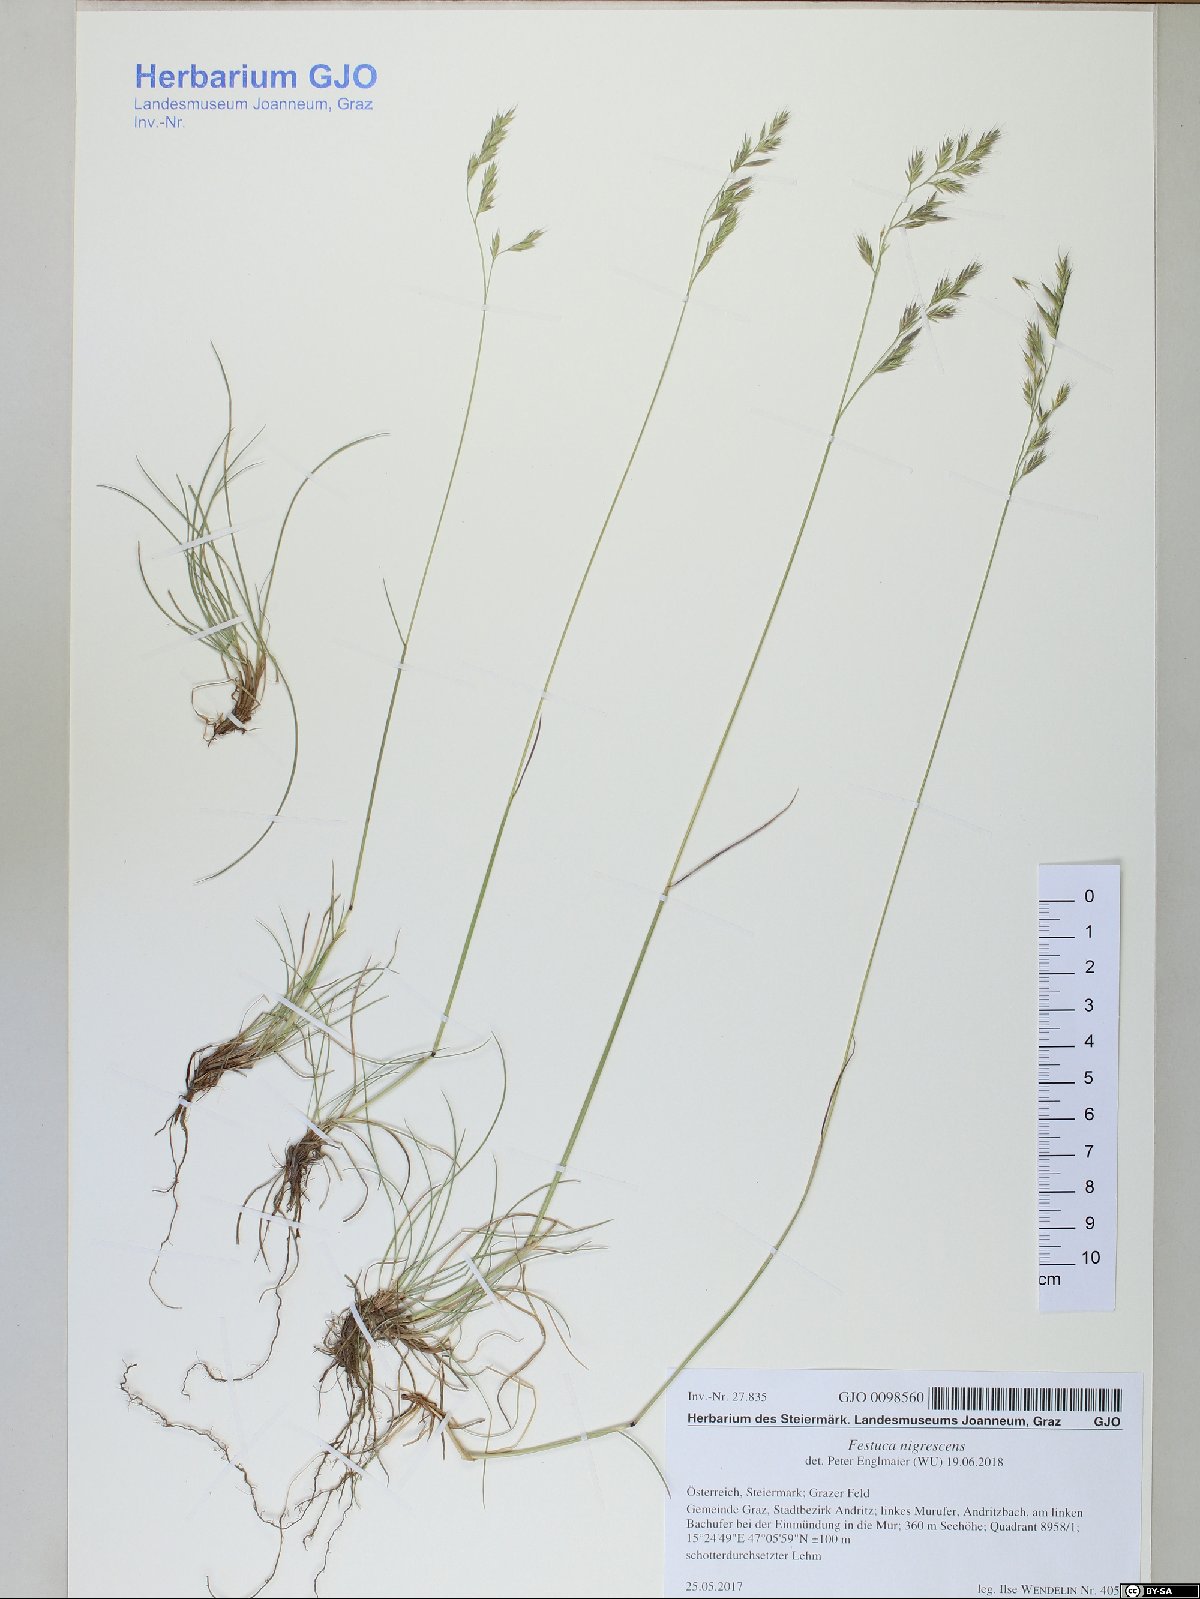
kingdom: Plantae
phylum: Tracheophyta
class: Liliopsida
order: Poales
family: Poaceae
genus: Festuca
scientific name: Festuca nigrescens
